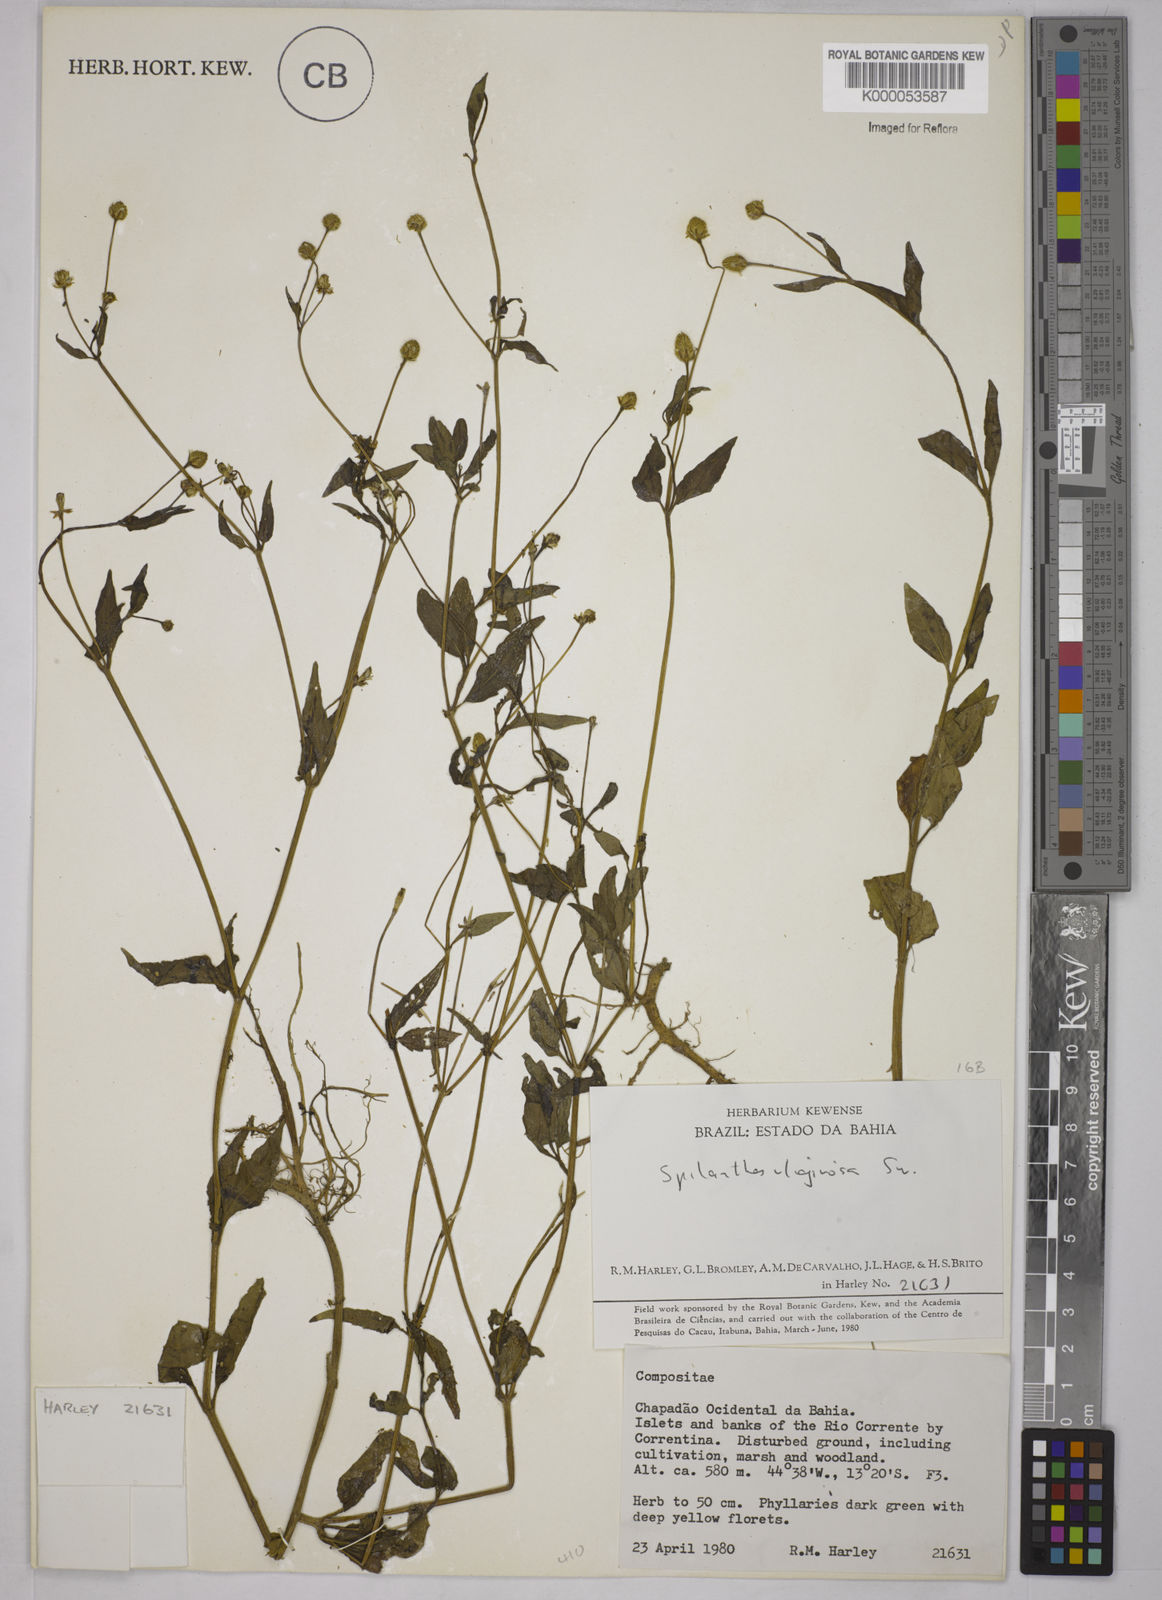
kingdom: Plantae
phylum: Tracheophyta
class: Magnoliopsida
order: Asterales
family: Asteraceae
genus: Acmella
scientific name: Acmella uliginosa
